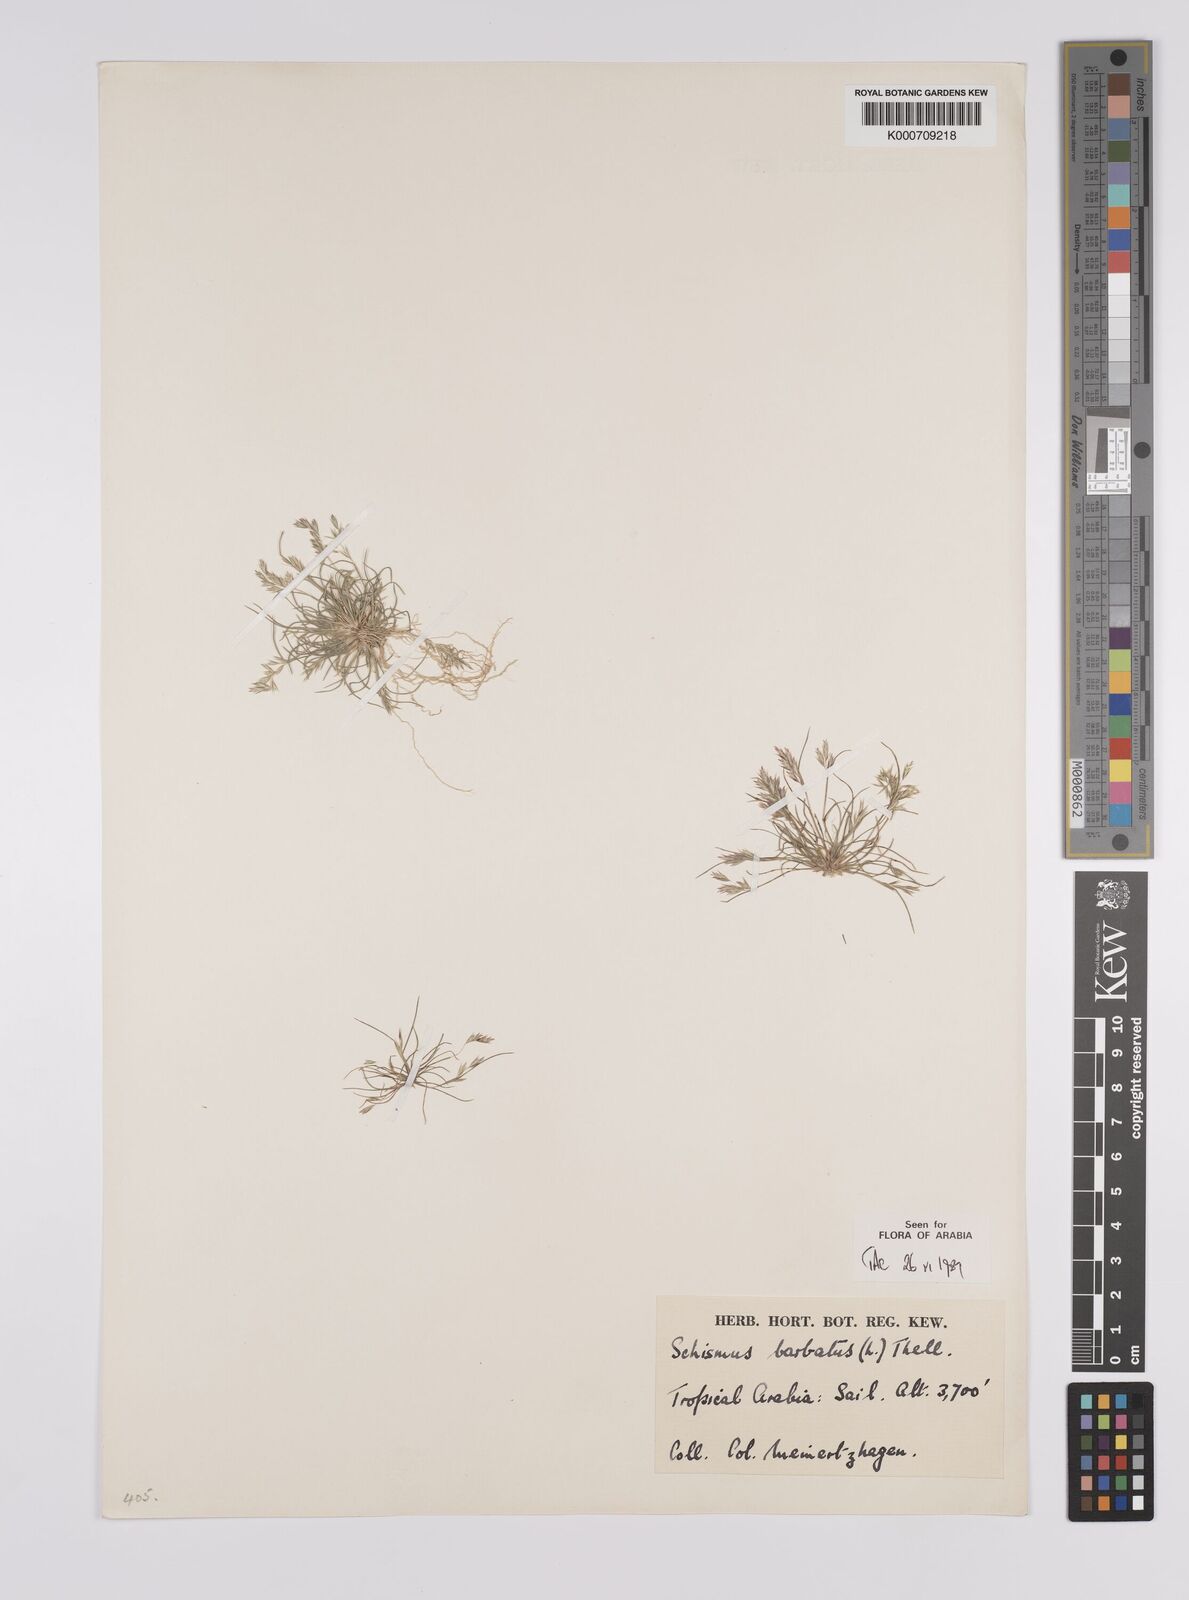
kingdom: Plantae
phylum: Tracheophyta
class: Liliopsida
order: Poales
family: Poaceae
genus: Schismus
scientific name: Schismus barbatus
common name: Kelch-grass
